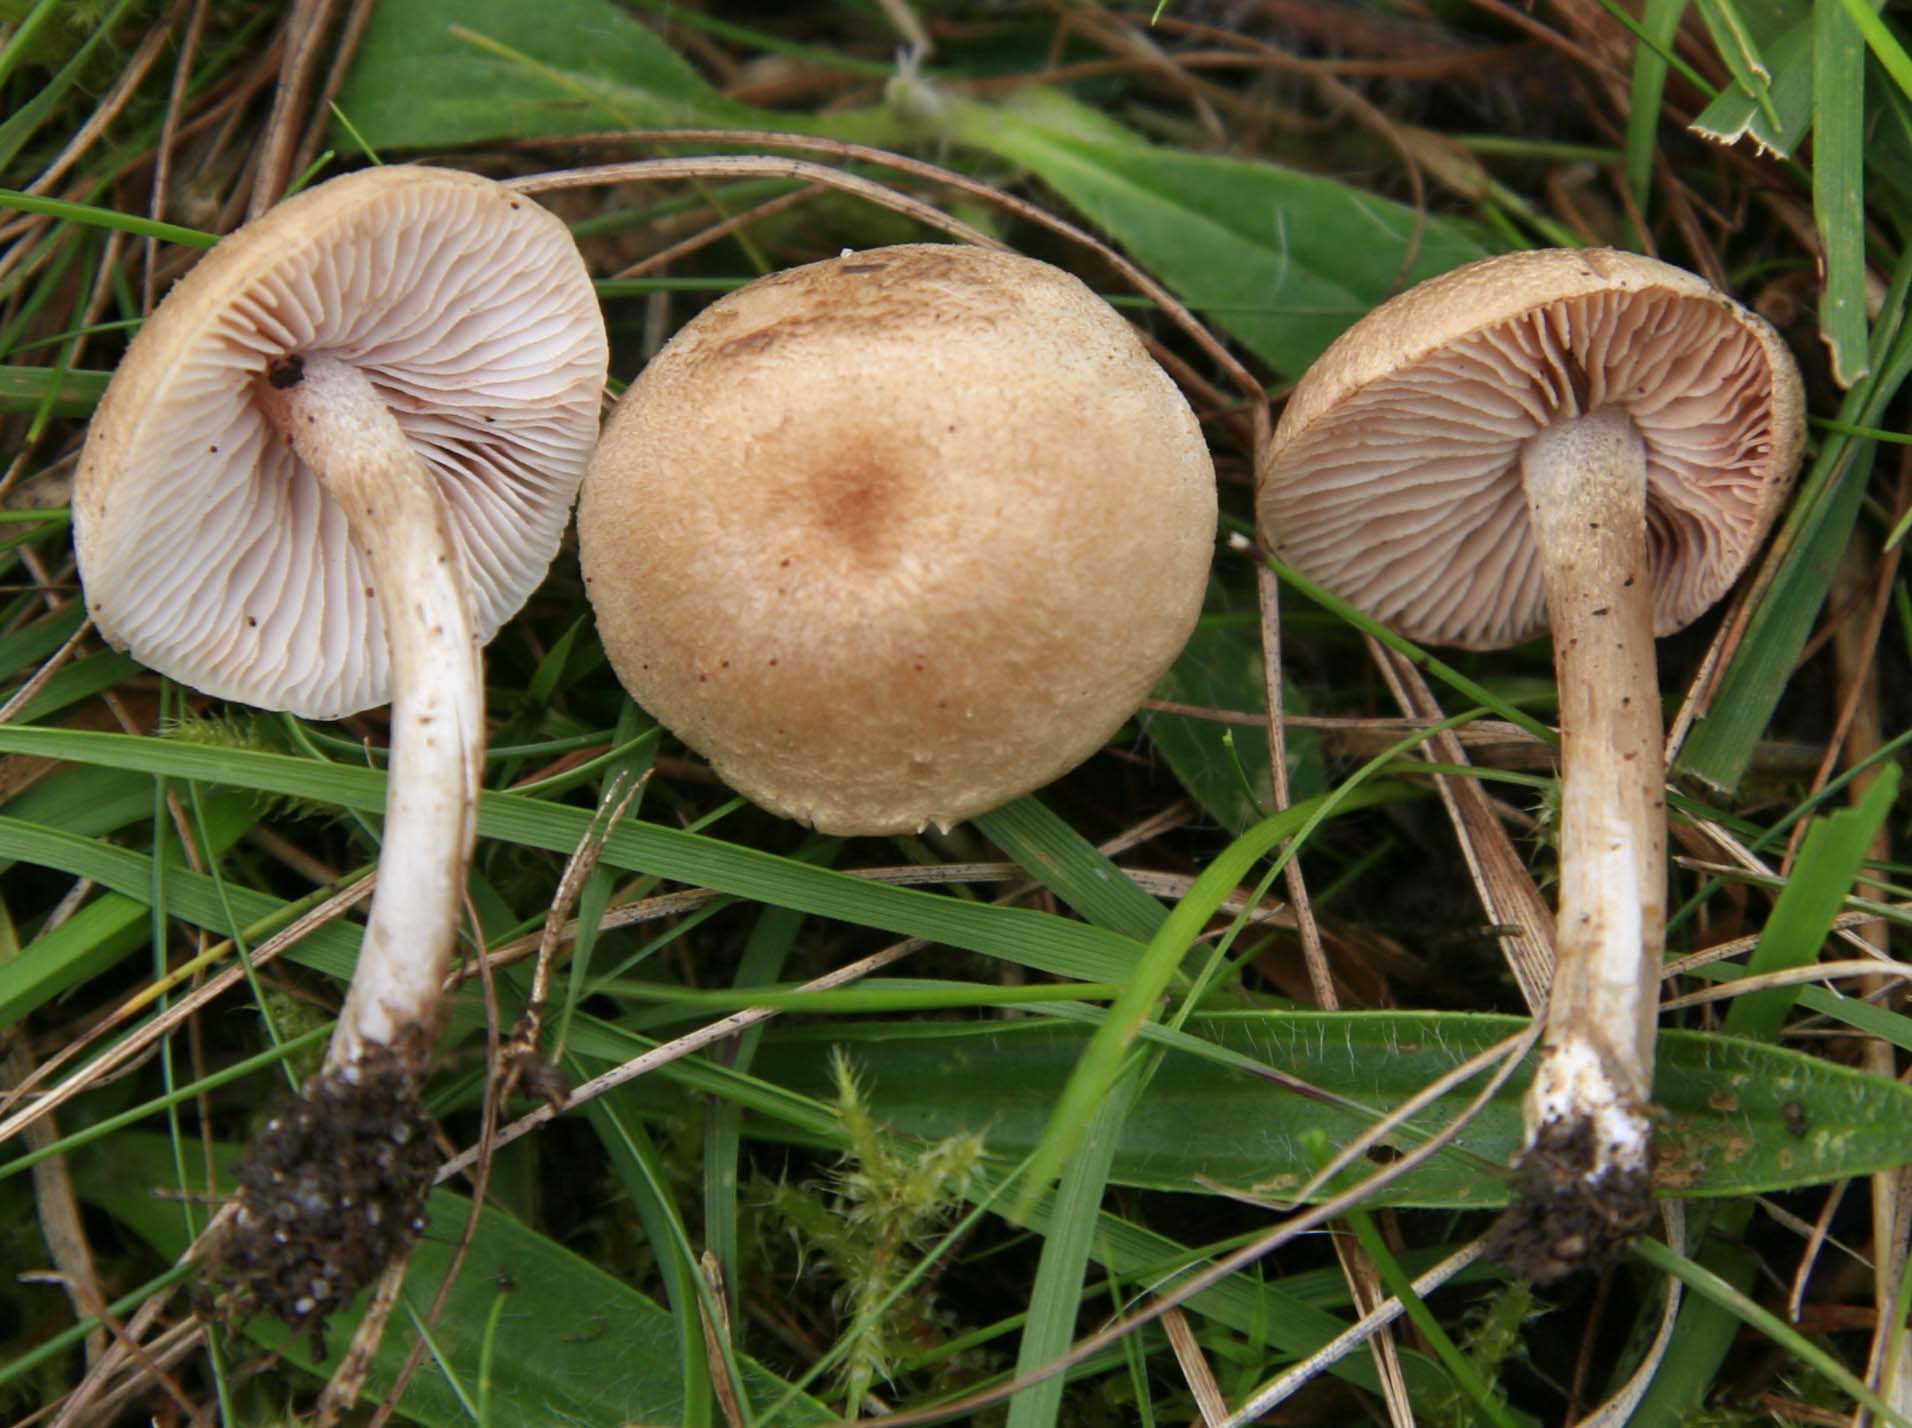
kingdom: Fungi
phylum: Basidiomycota
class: Agaricomycetes
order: Agaricales
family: Entolomataceae
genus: Entoloma
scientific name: Entoloma queletii
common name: rosalilla rødblad
